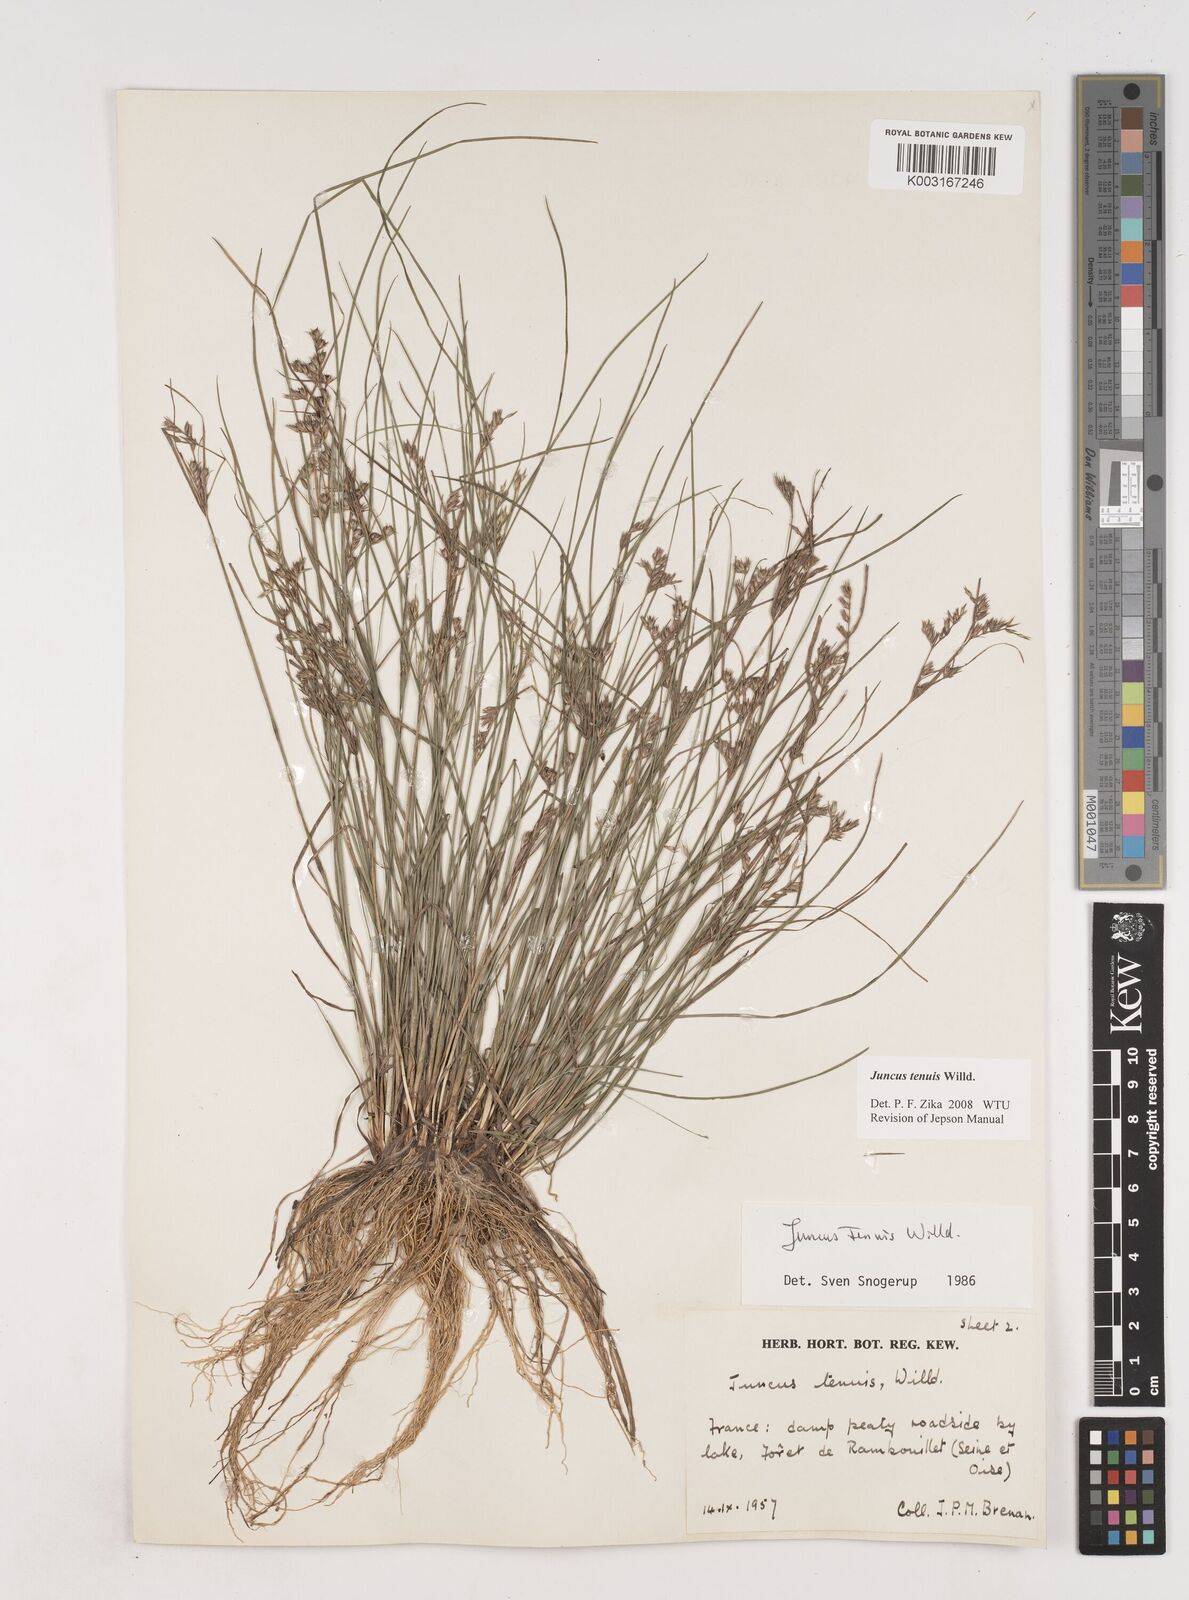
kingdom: Plantae
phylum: Tracheophyta
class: Liliopsida
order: Poales
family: Juncaceae
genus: Juncus
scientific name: Juncus tenuis
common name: Slender rush
